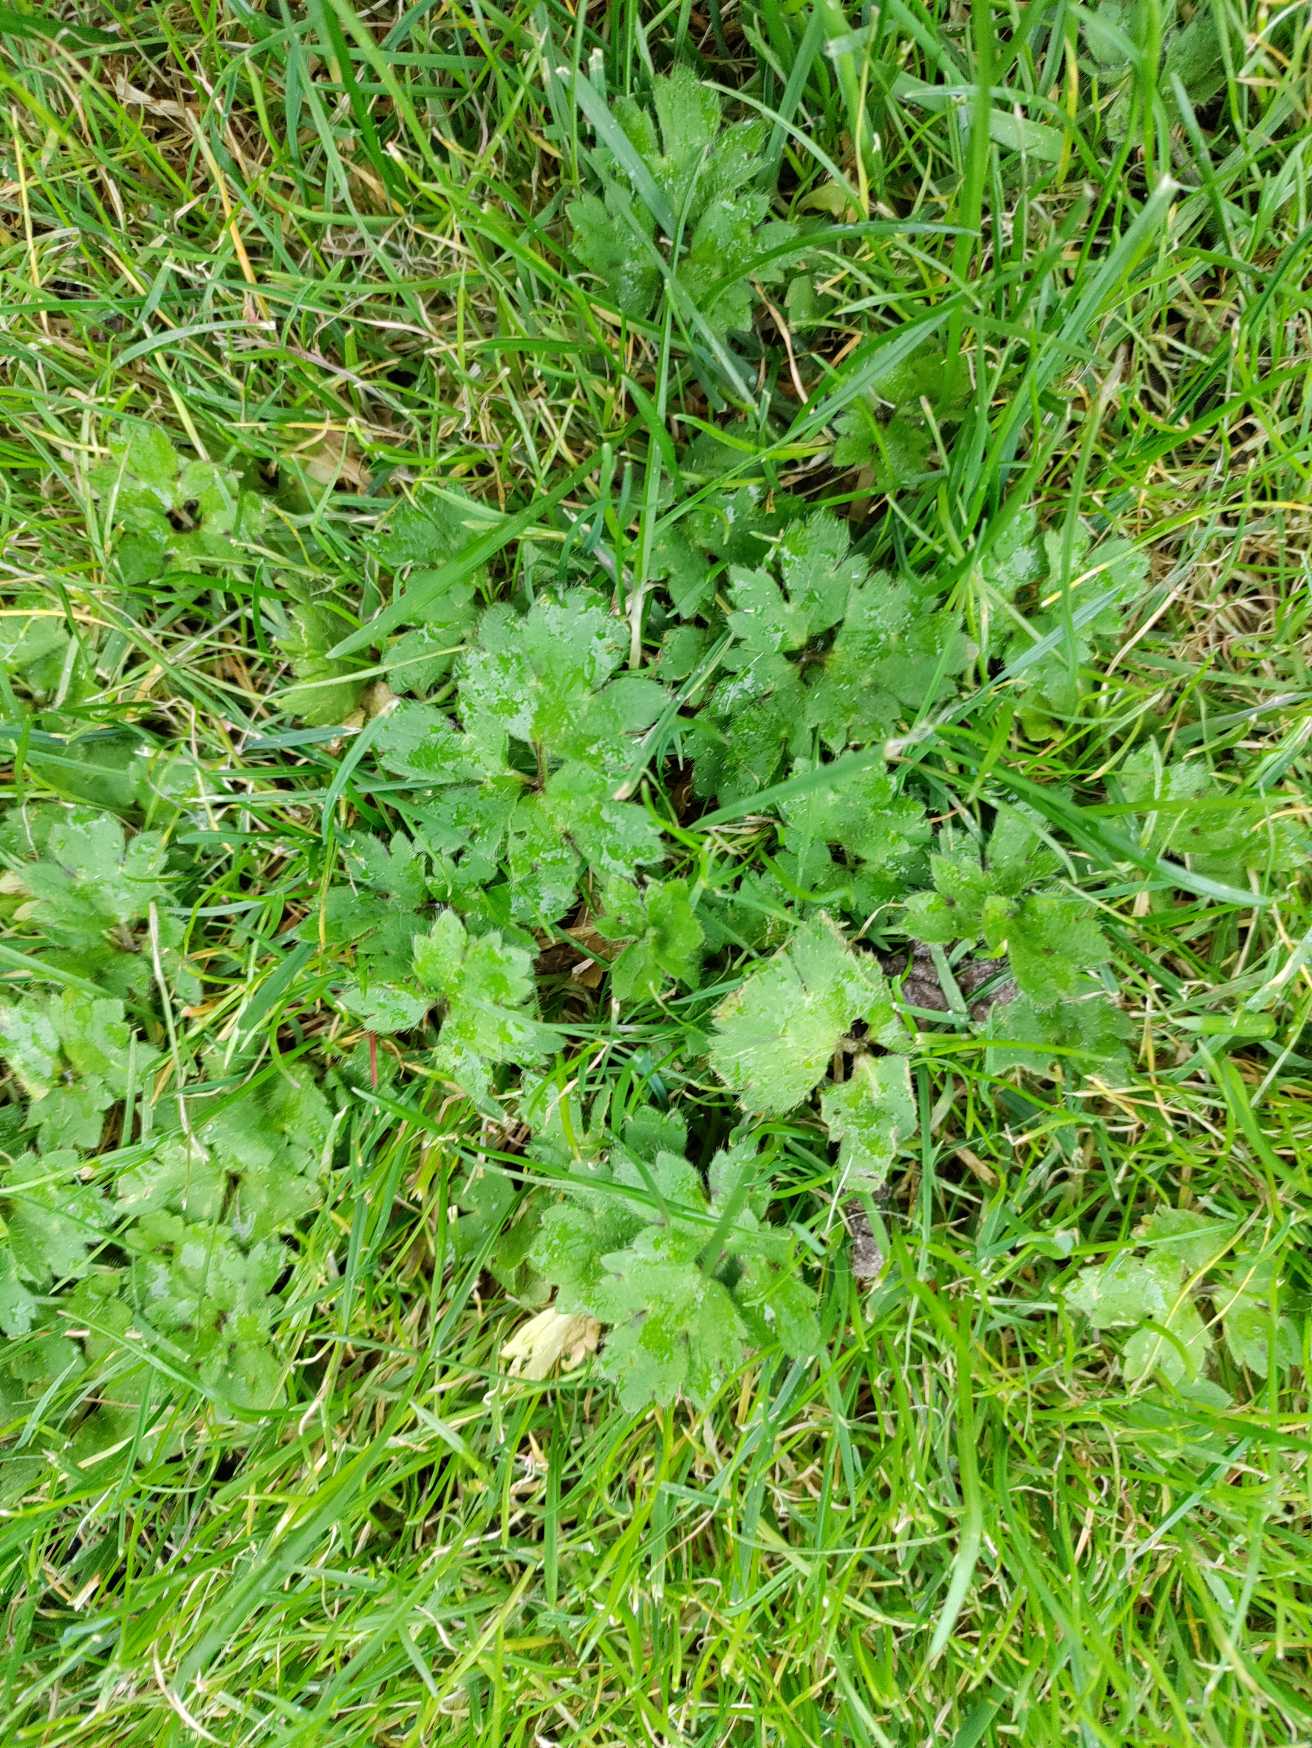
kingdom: Plantae
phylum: Tracheophyta
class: Magnoliopsida
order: Ranunculales
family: Ranunculaceae
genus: Ranunculus
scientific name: Ranunculus repens
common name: Lav ranunkel
